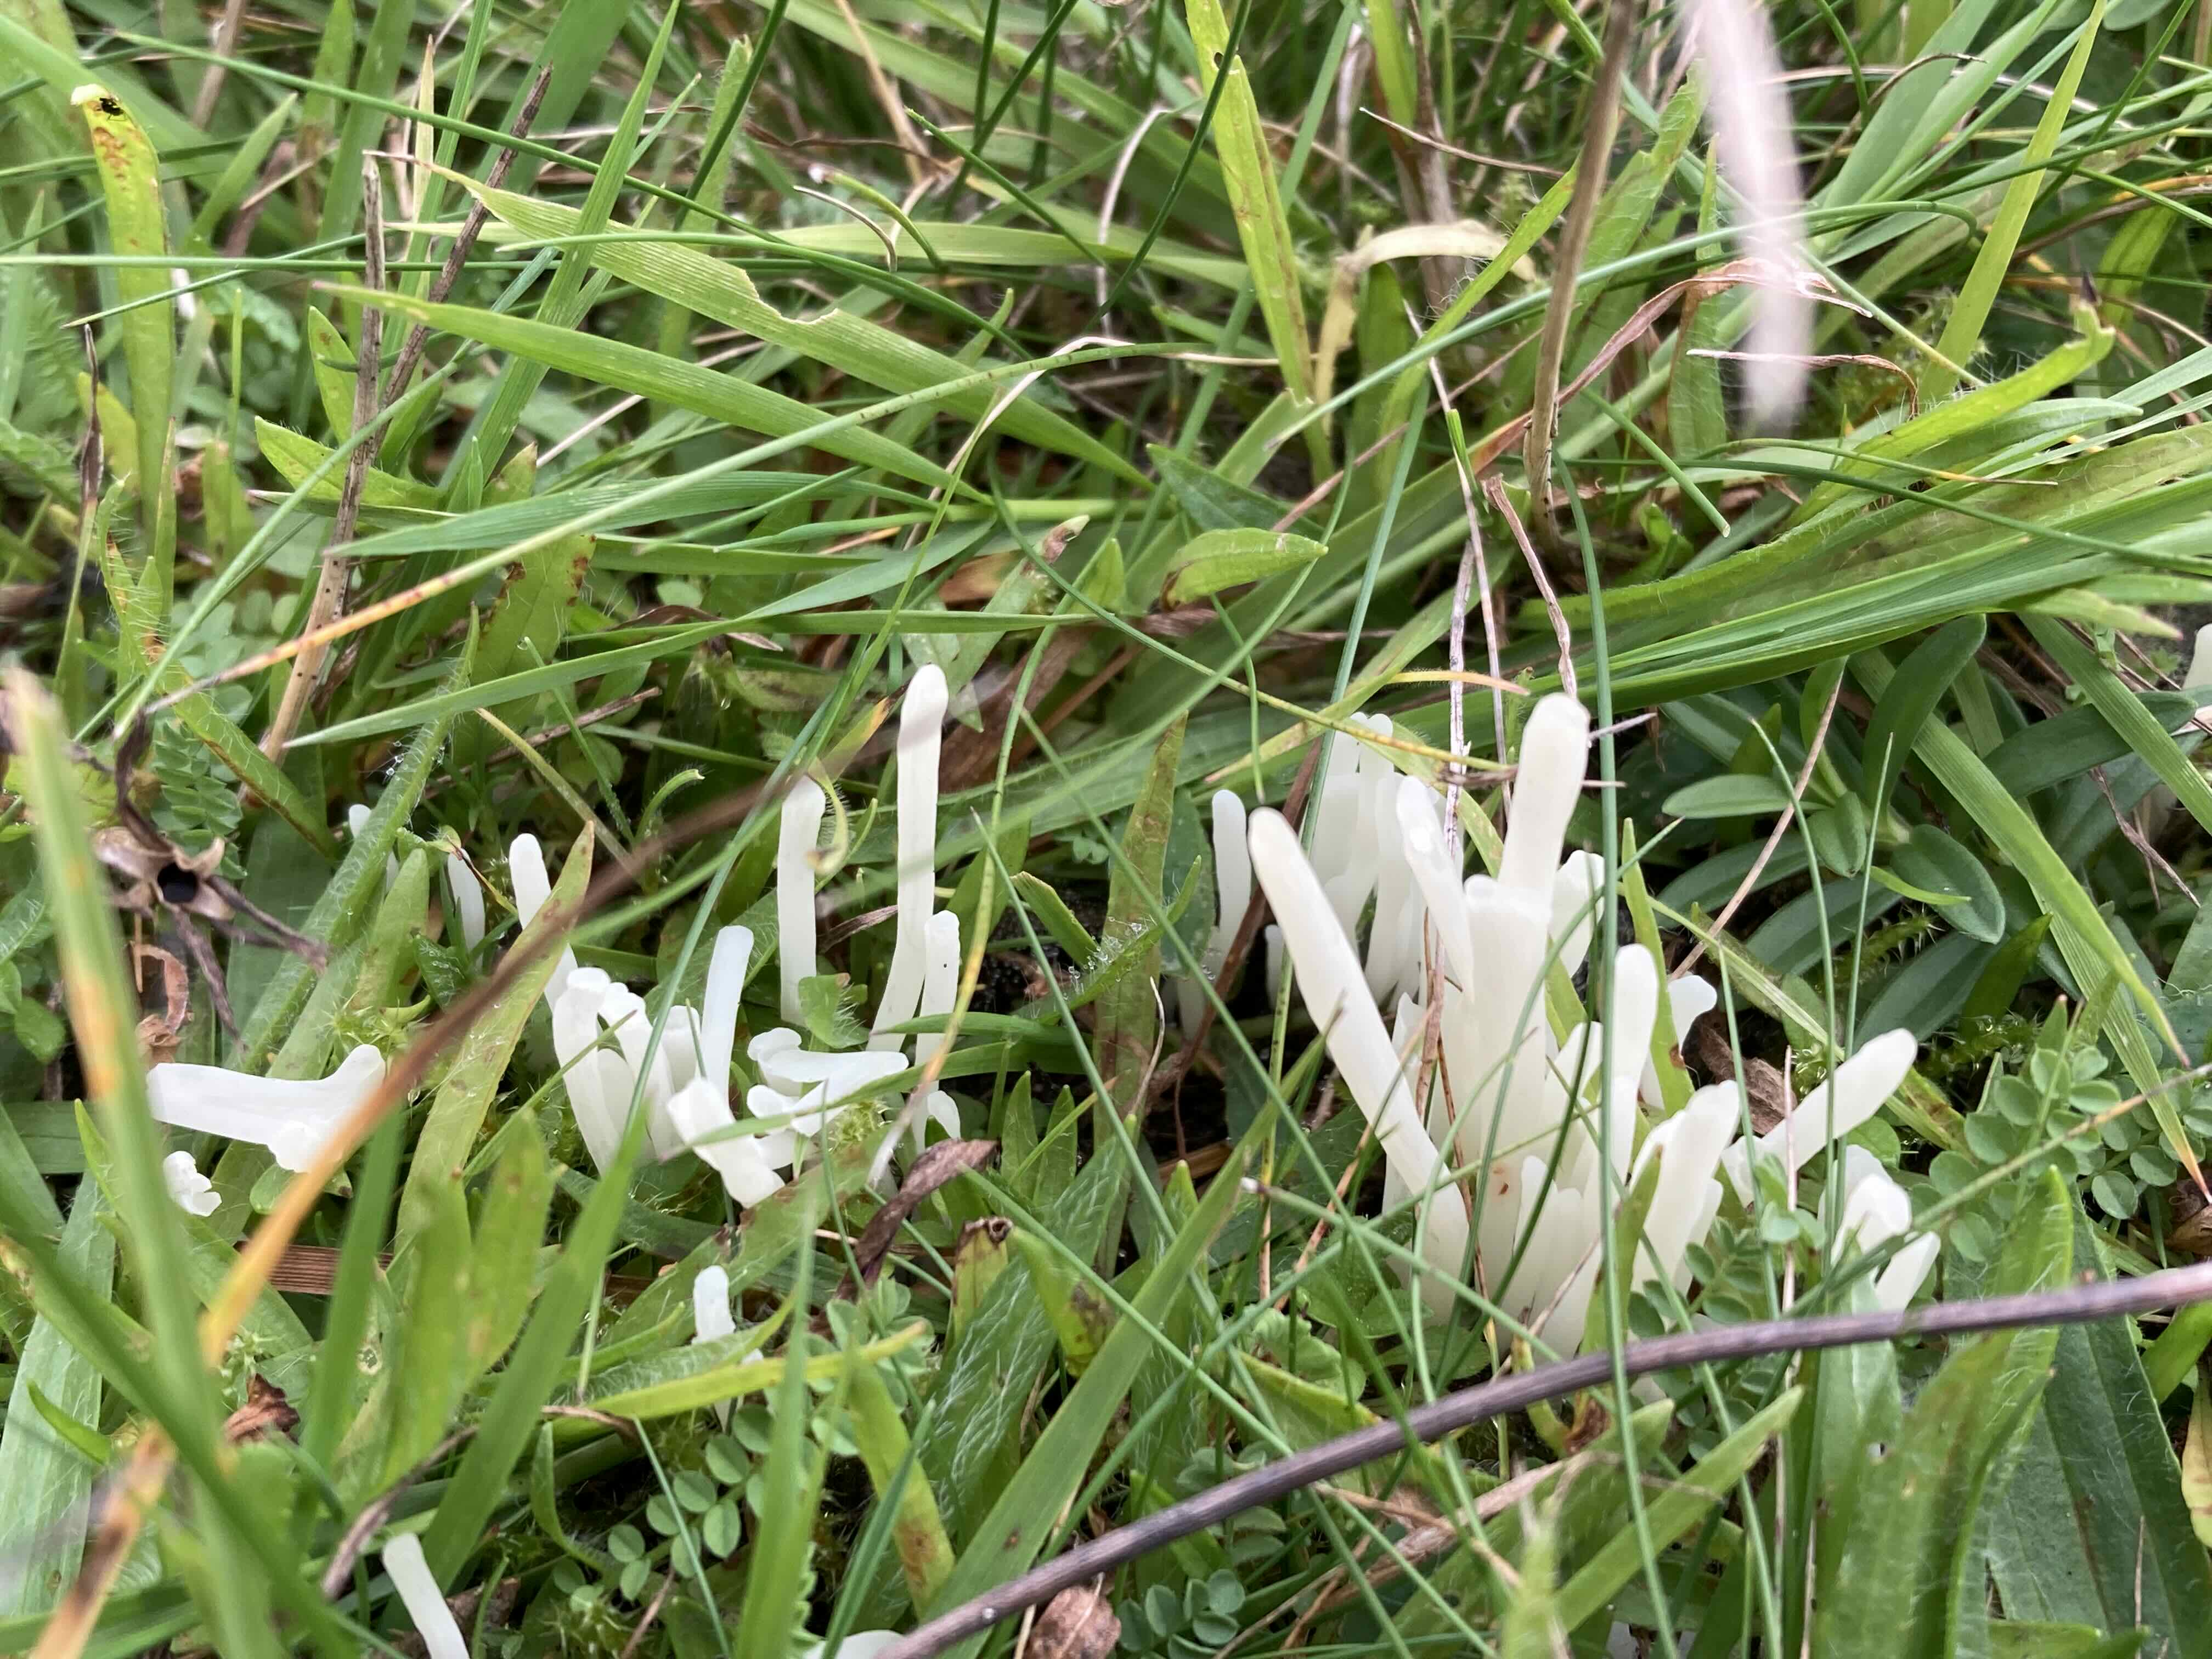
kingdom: Fungi
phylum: Basidiomycota
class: Agaricomycetes
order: Agaricales
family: Clavariaceae
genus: Clavaria
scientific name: Clavaria
